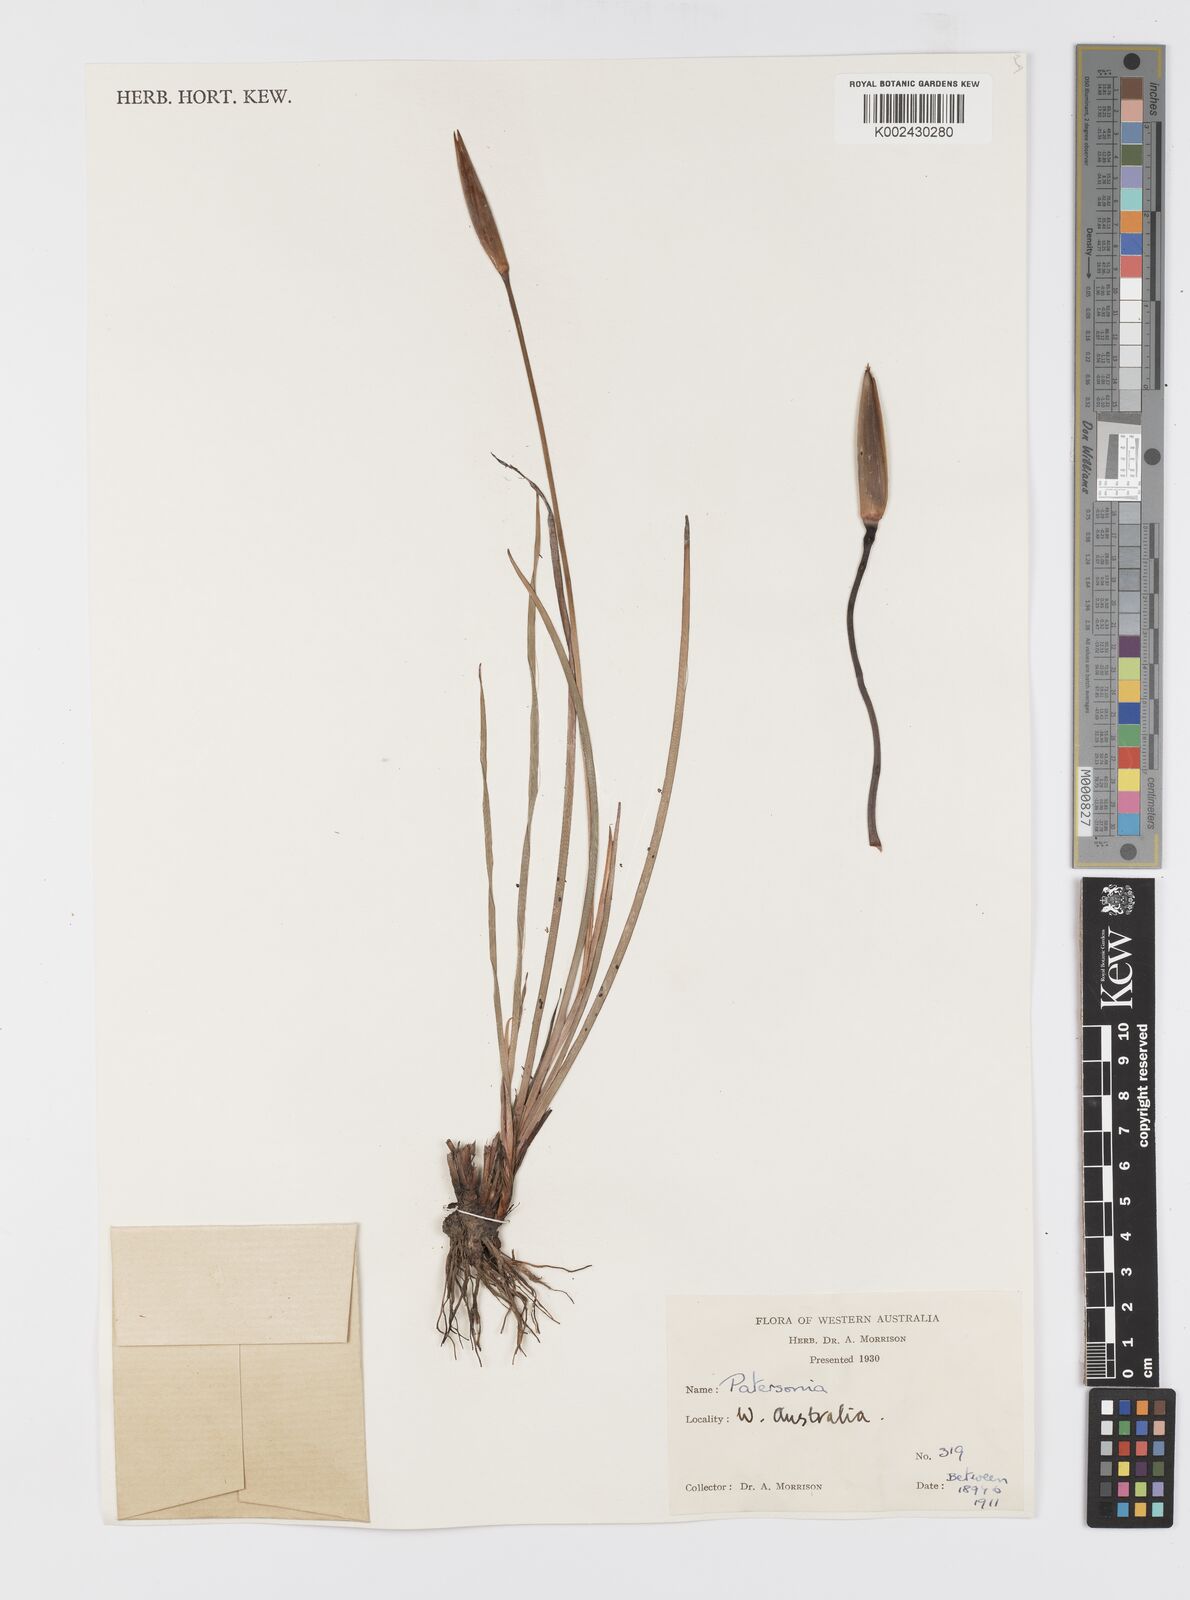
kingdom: Plantae
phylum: Tracheophyta
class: Liliopsida
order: Asparagales
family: Iridaceae
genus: Patersonia
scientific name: Patersonia
